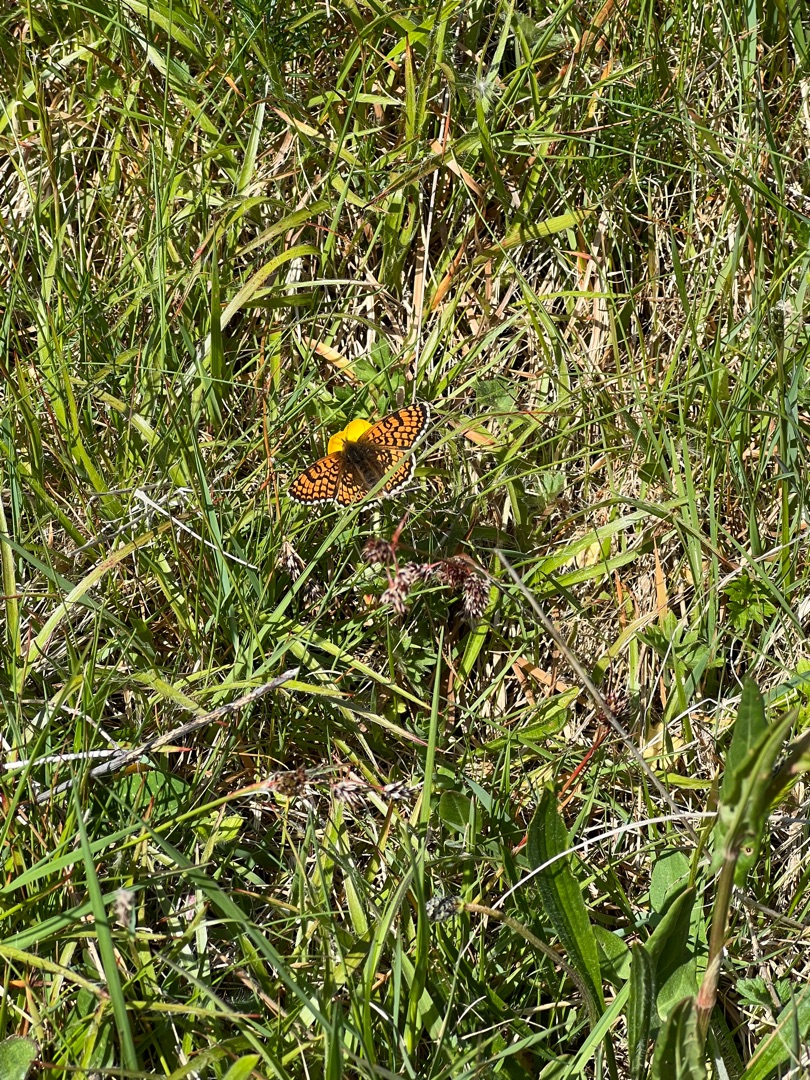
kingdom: Animalia
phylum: Arthropoda
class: Insecta
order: Lepidoptera
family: Nymphalidae
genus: Melitaea
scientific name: Melitaea cinxia
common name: Okkergul pletvinge
